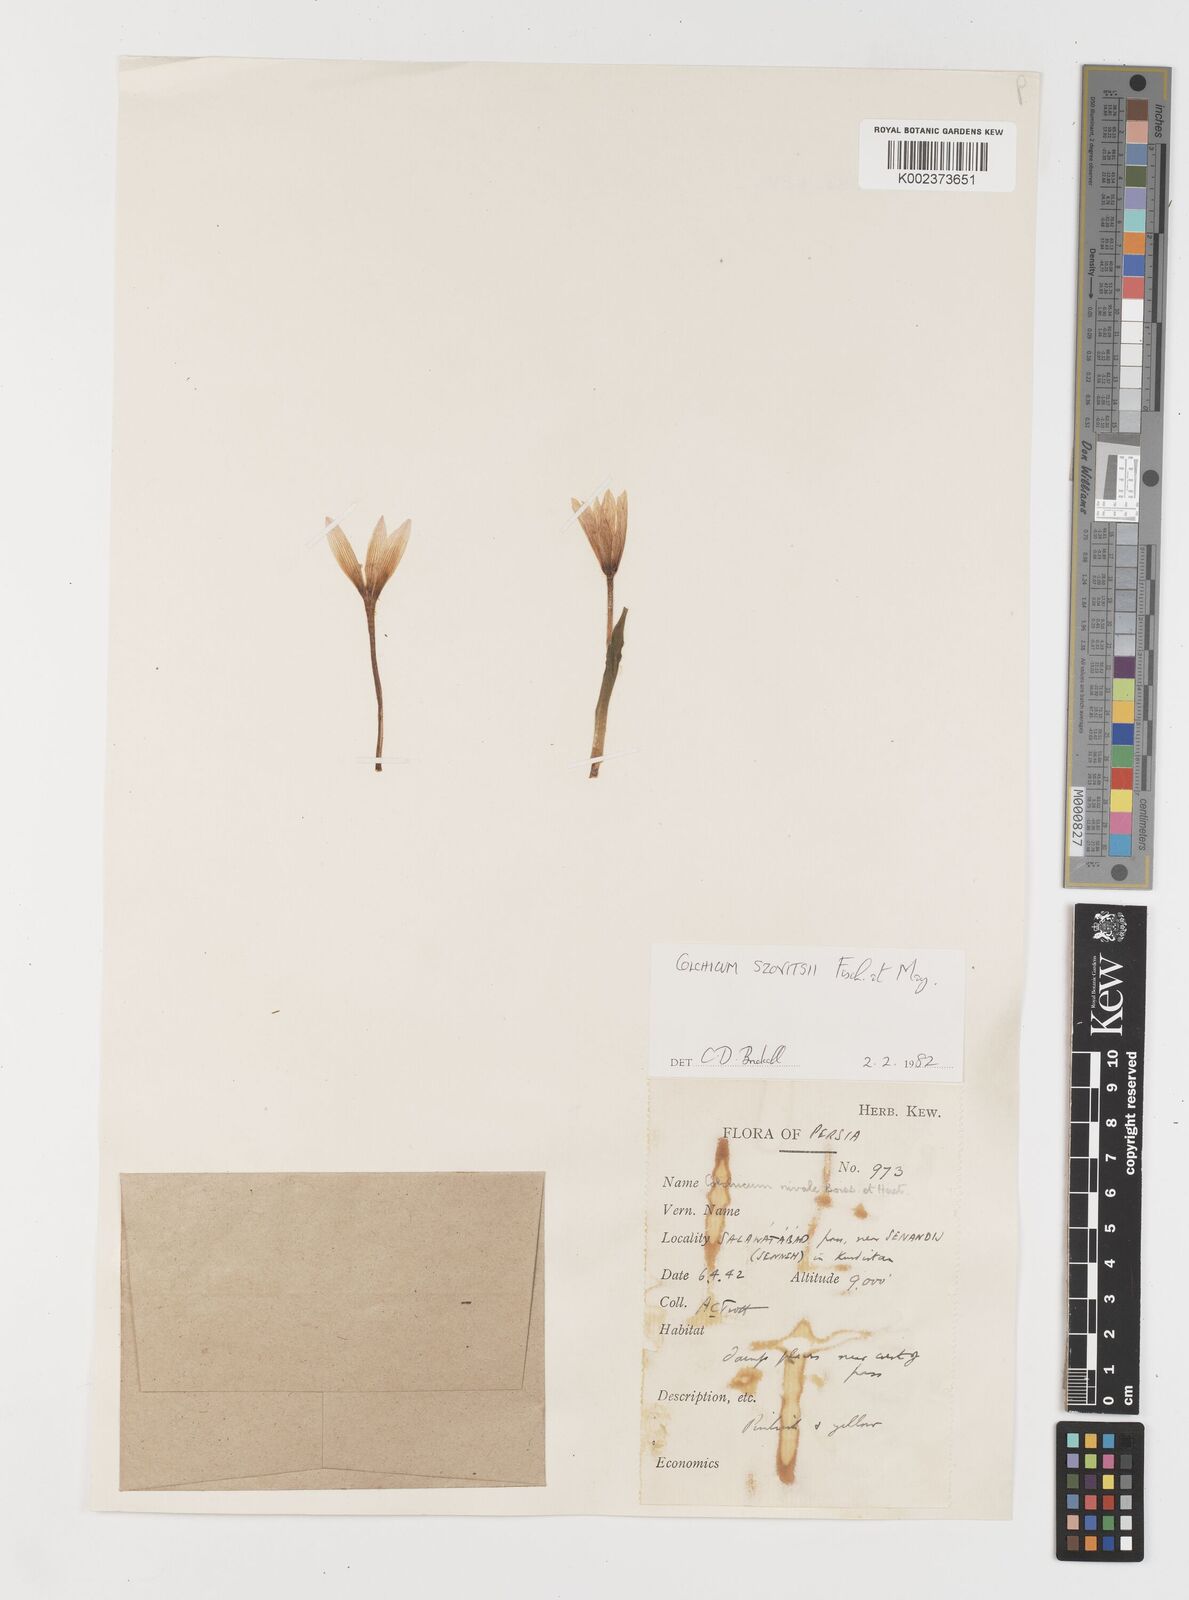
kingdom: Plantae
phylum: Tracheophyta
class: Liliopsida
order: Liliales
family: Colchicaceae
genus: Colchicum
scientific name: Colchicum szovitsii
